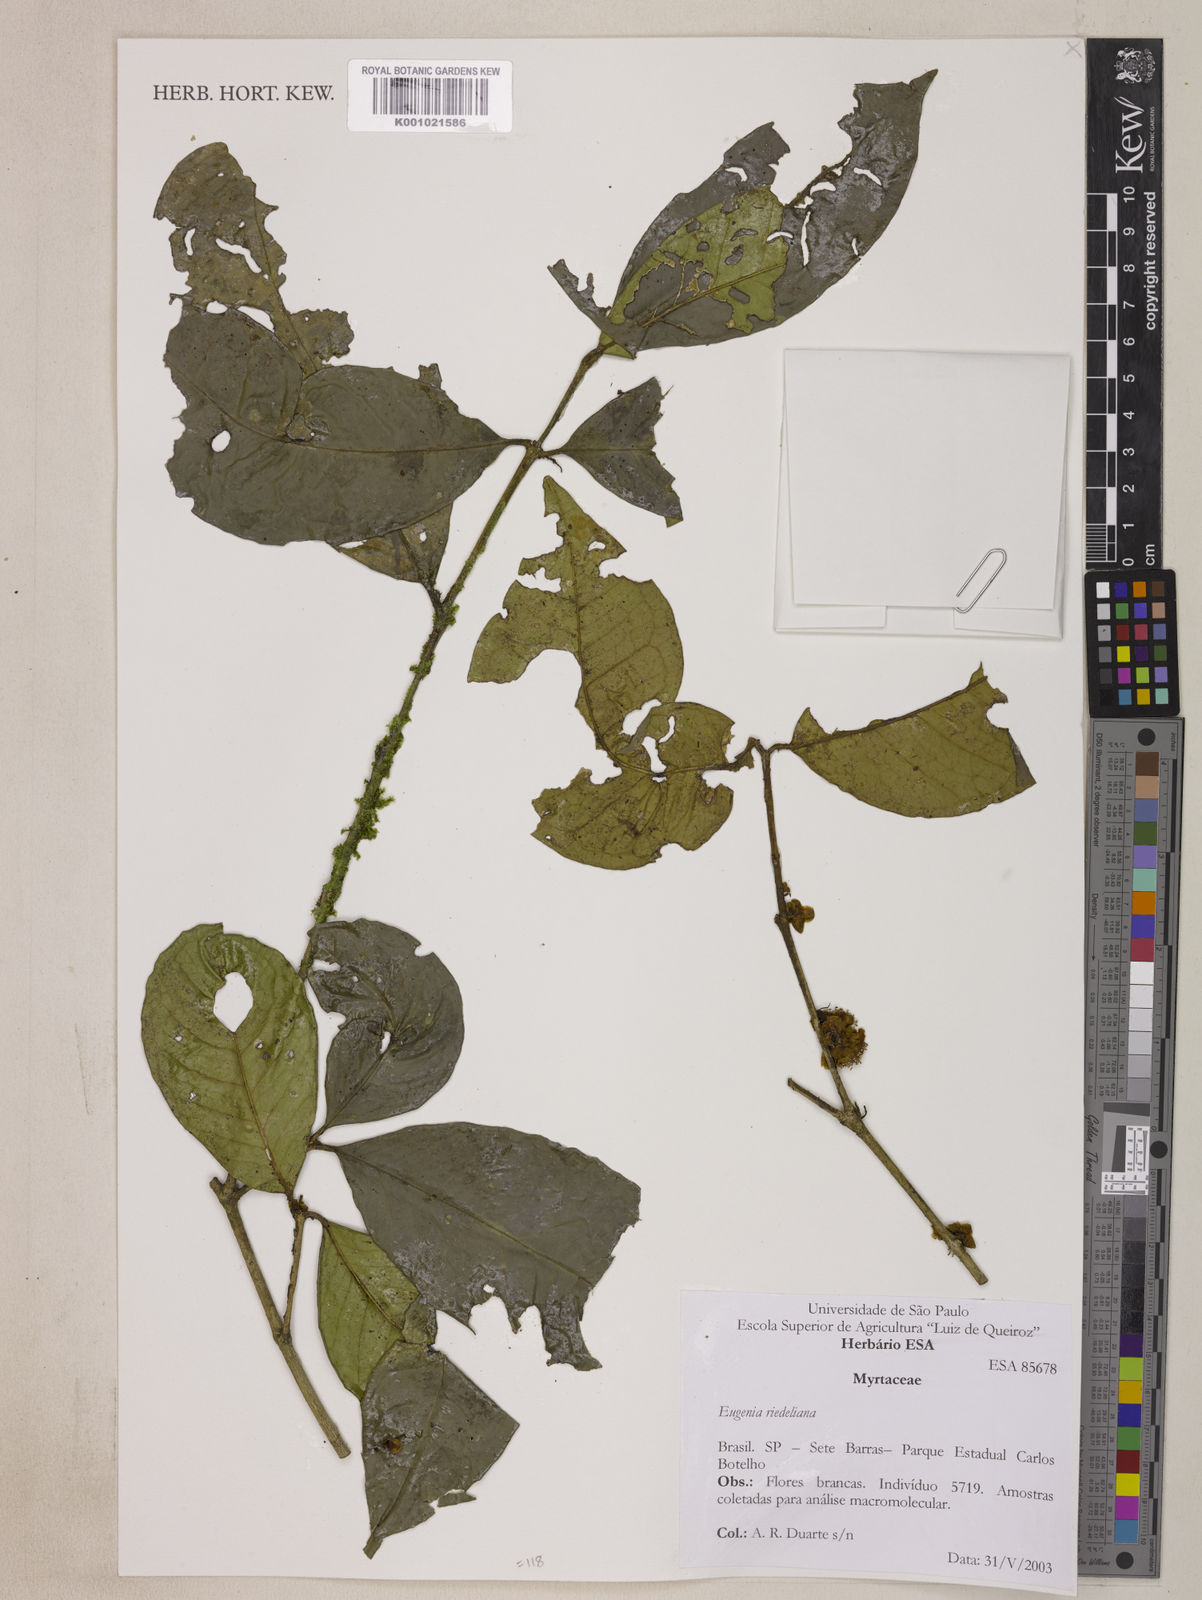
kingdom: Plantae
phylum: Tracheophyta
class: Magnoliopsida
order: Myrtales
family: Myrtaceae
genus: Eugenia
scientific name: Eugenia verticillata
